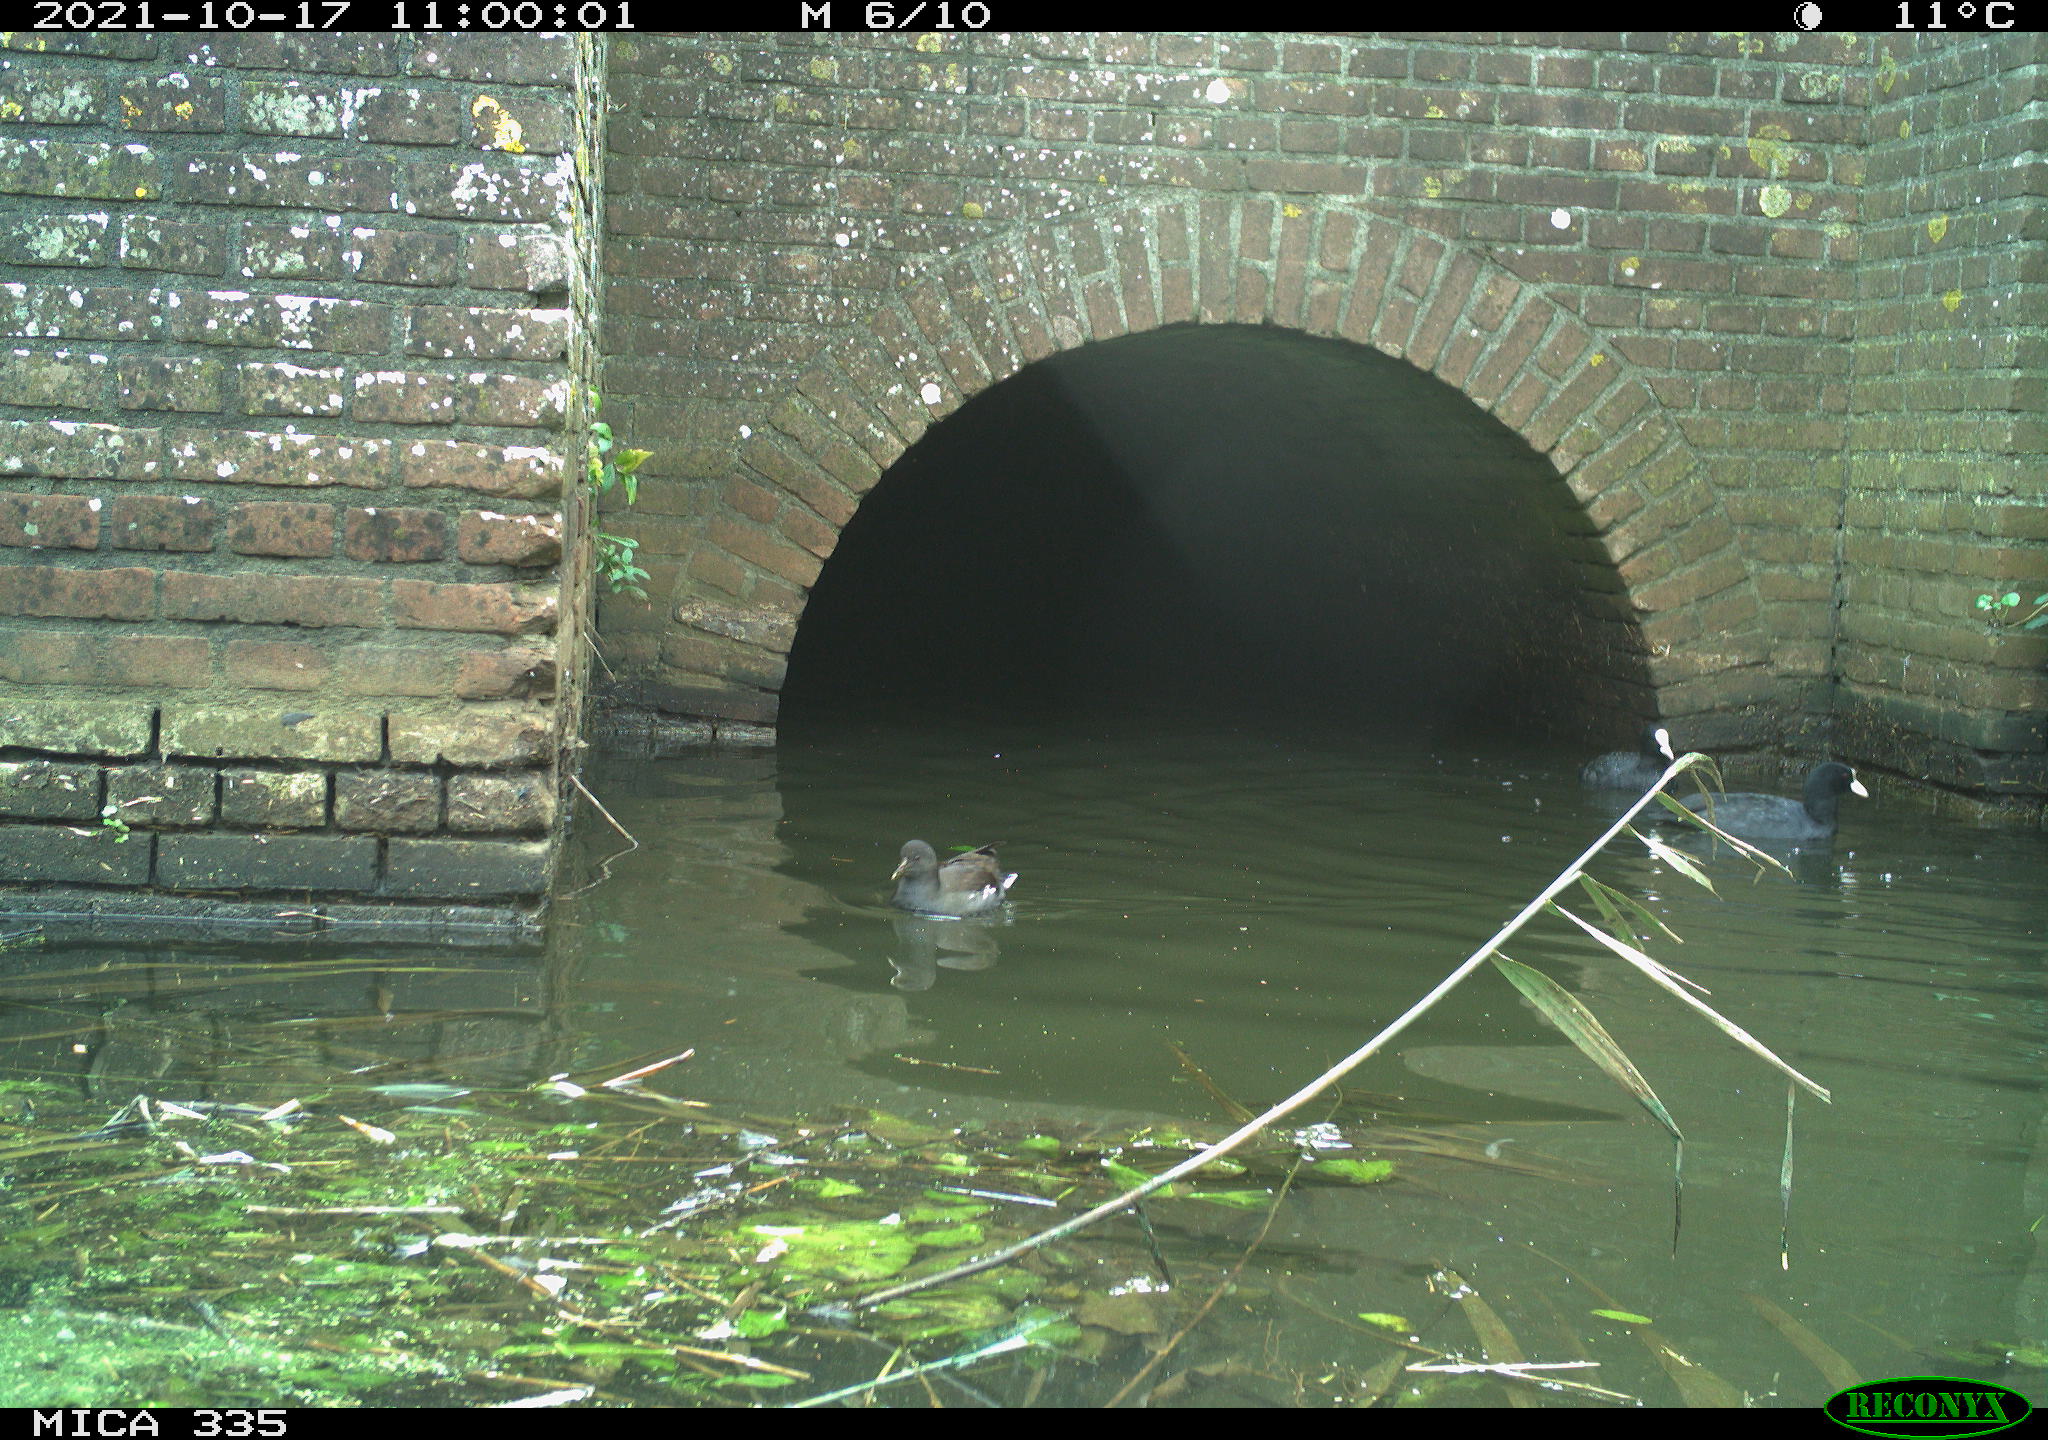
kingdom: Animalia
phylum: Chordata
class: Aves
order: Gruiformes
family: Rallidae
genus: Fulica
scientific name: Fulica atra
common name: Eurasian coot
